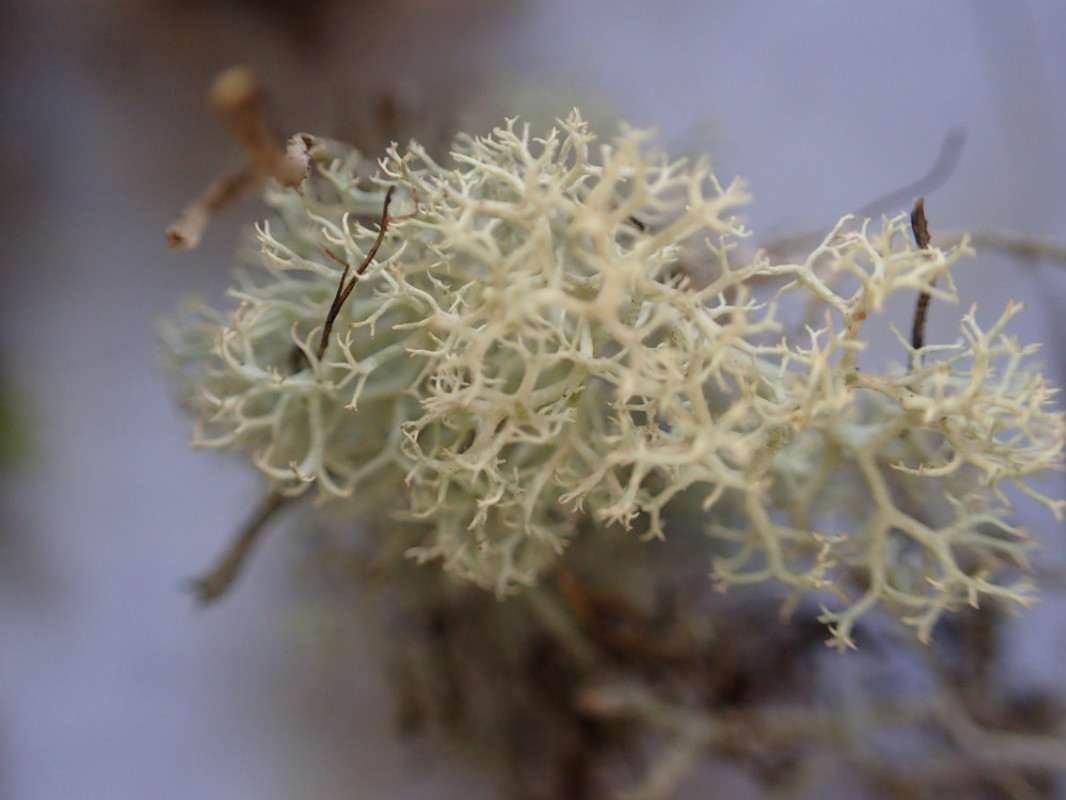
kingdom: Fungi
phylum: Ascomycota
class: Lecanoromycetes
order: Lecanorales
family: Cladoniaceae
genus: Cladonia
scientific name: Cladonia portentosa
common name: hede-rensdyrlav
